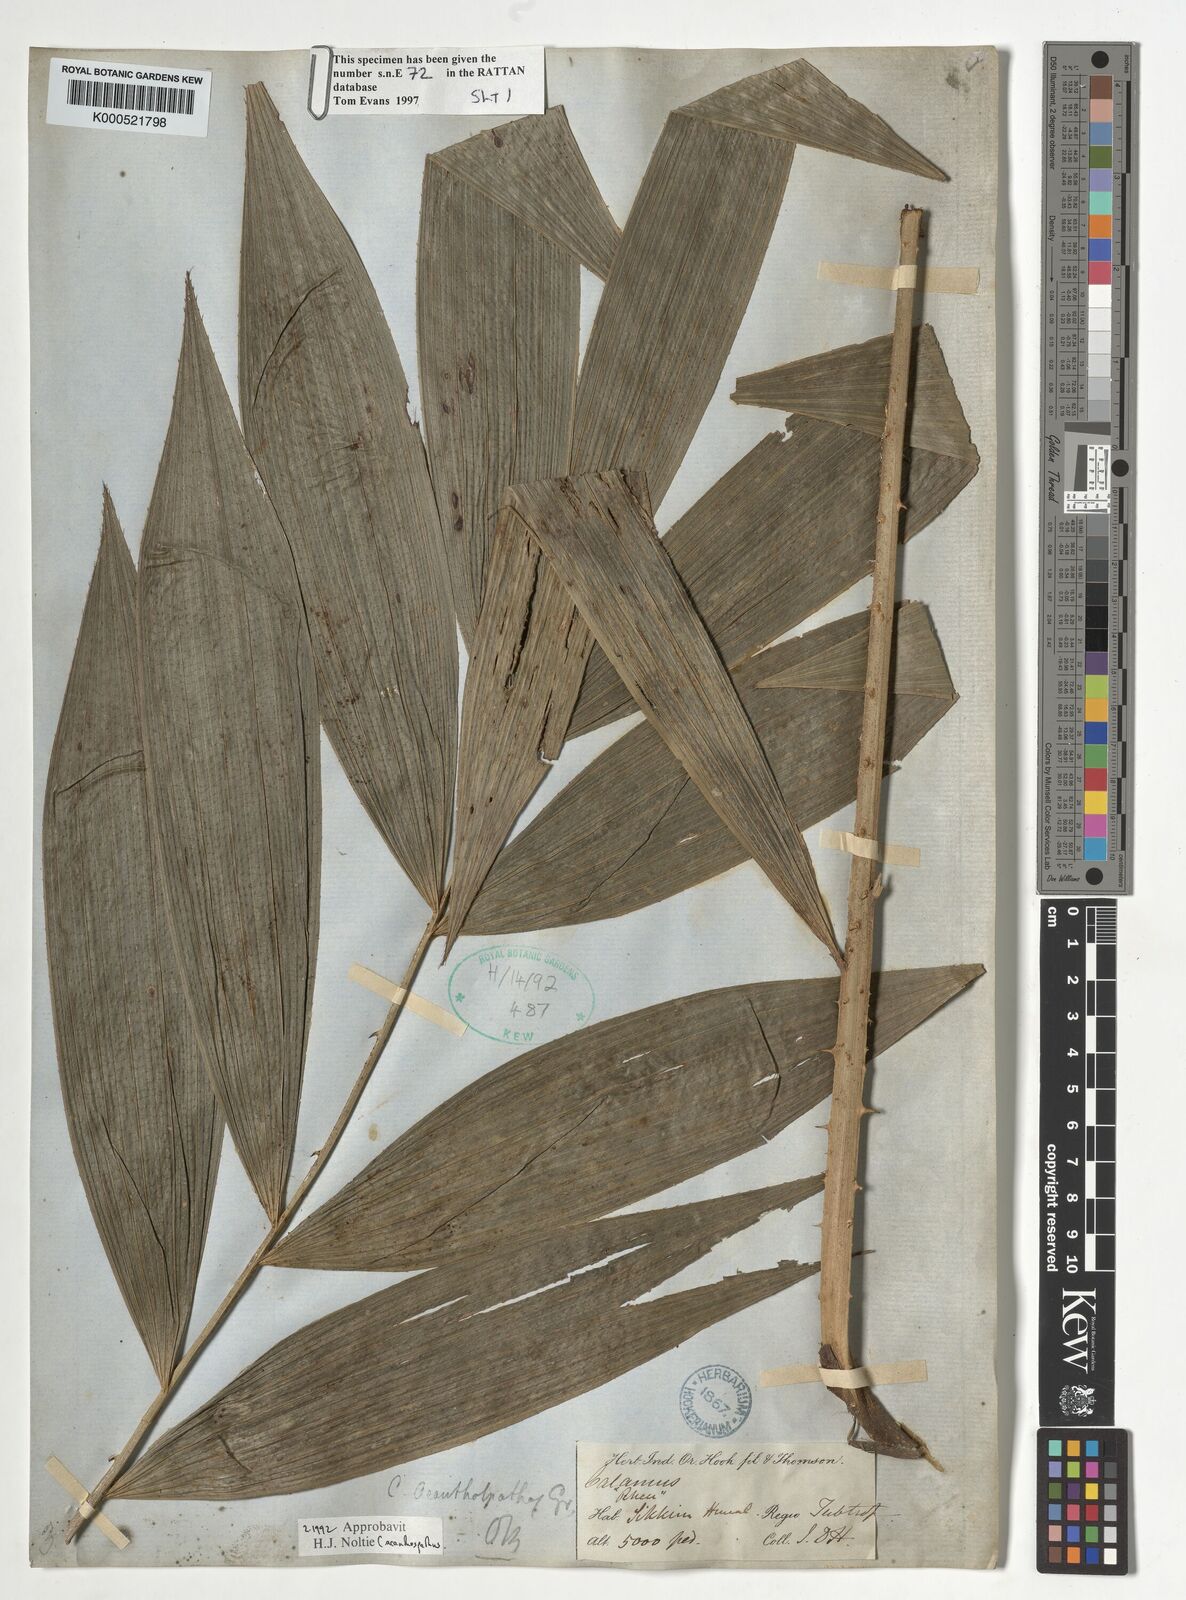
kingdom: Plantae
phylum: Tracheophyta
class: Liliopsida
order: Arecales
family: Arecaceae
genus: Calamus
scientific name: Calamus acanthospathus
